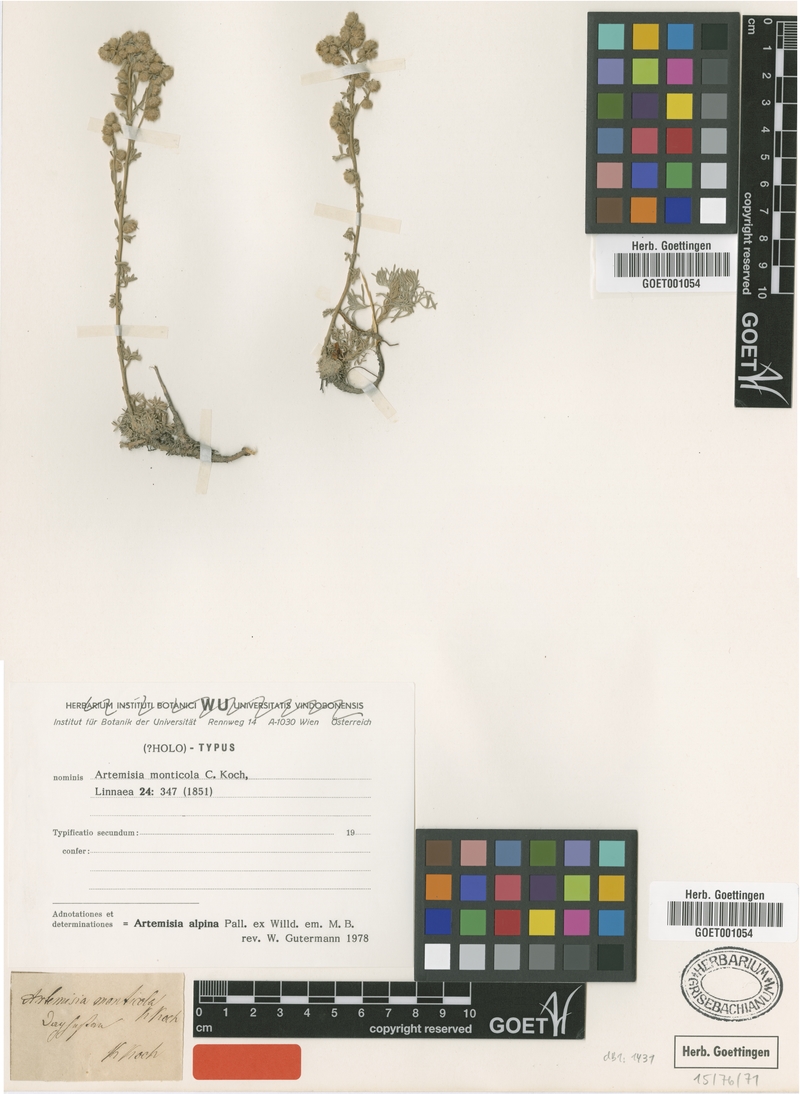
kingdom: Plantae
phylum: Tracheophyta
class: Magnoliopsida
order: Asterales
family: Asteraceae
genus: Artemisia
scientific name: Artemisia alpina
